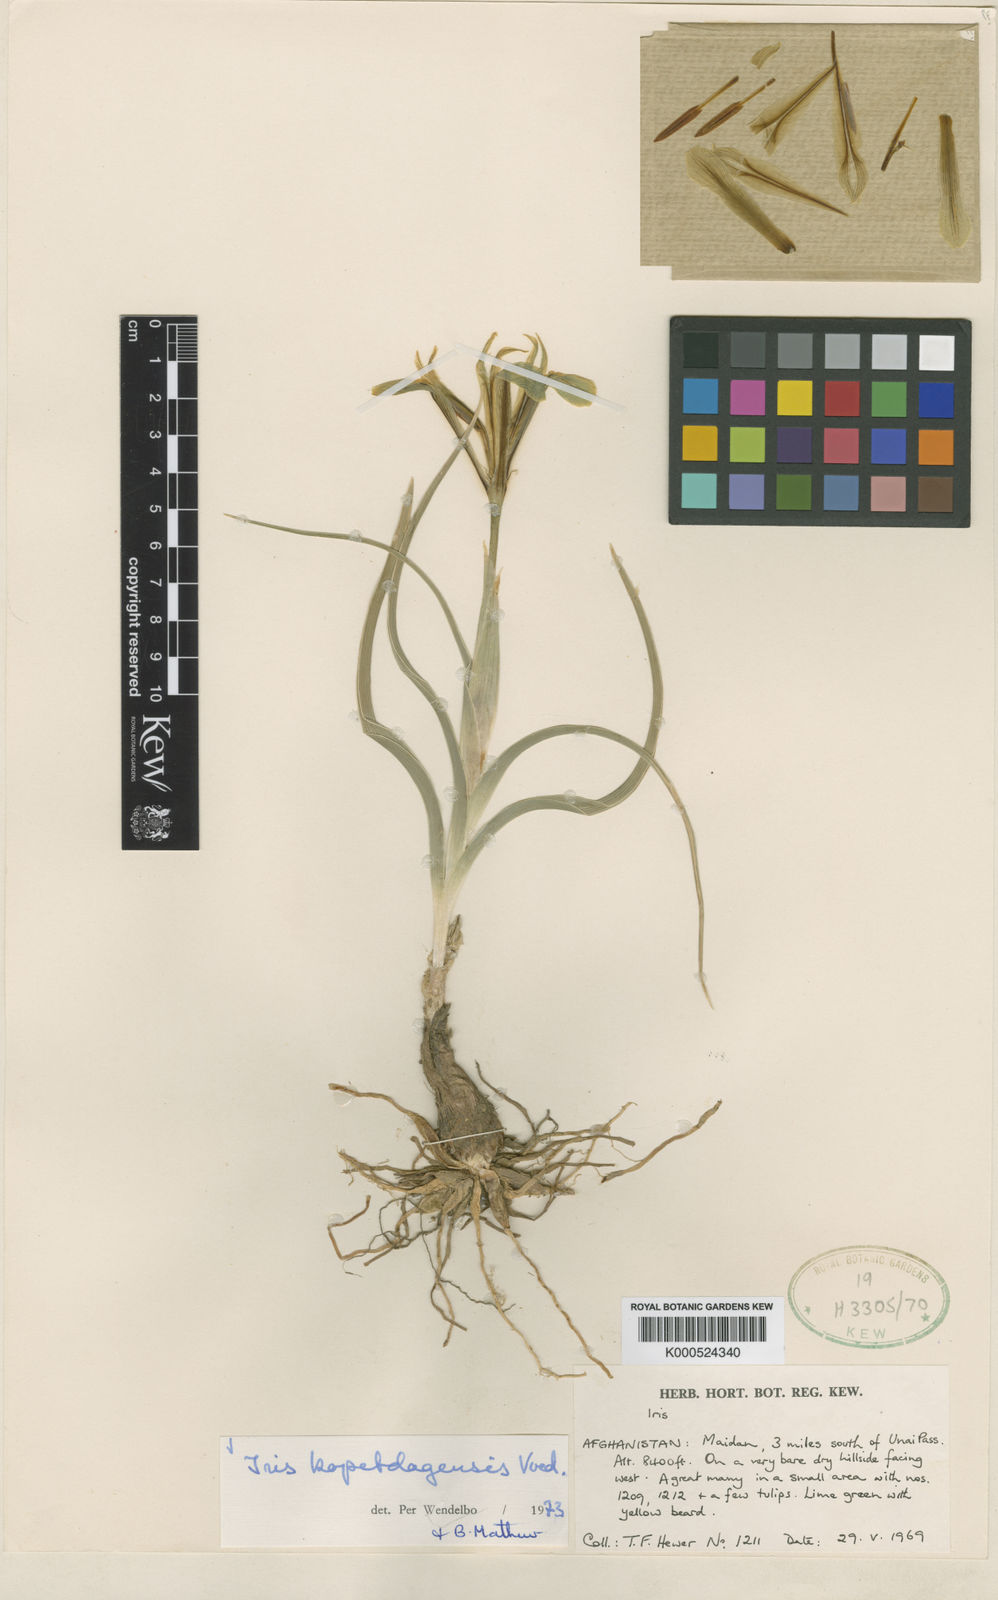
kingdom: Plantae
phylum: Tracheophyta
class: Liliopsida
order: Asparagales
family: Iridaceae
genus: Iris
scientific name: Iris
